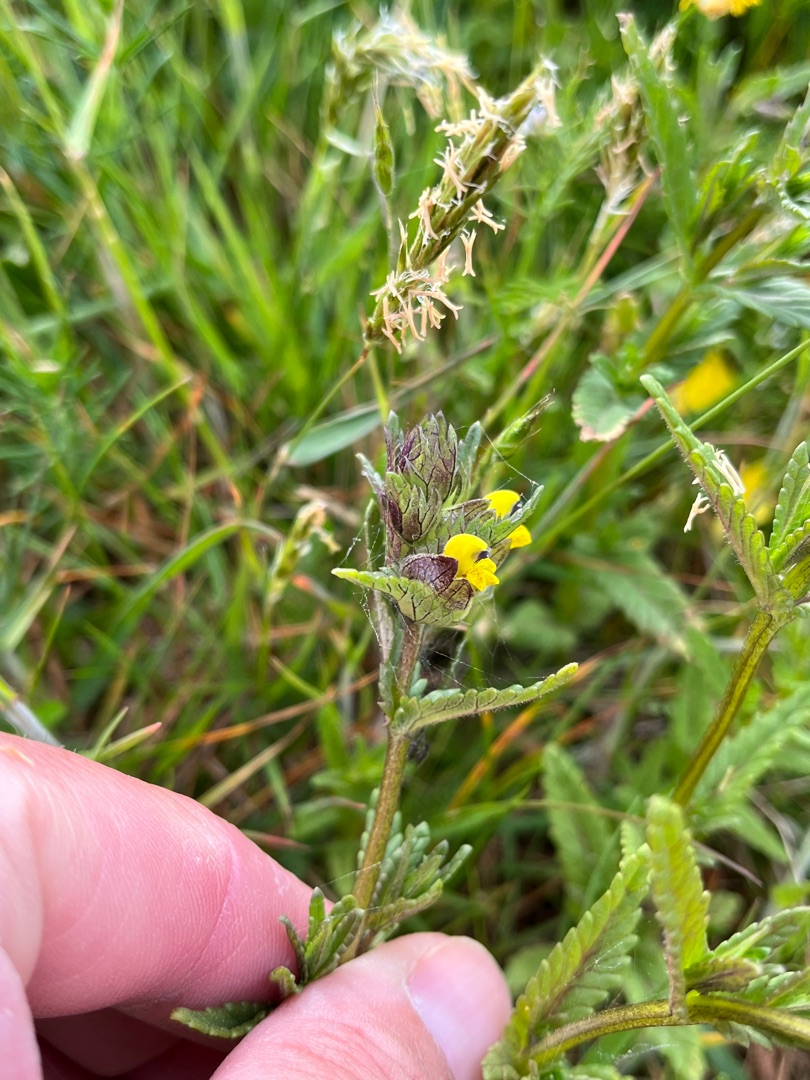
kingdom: Plantae
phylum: Tracheophyta
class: Magnoliopsida
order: Lamiales
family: Orobanchaceae
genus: Rhinanthus
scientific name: Rhinanthus minor
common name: Liden skjaller
